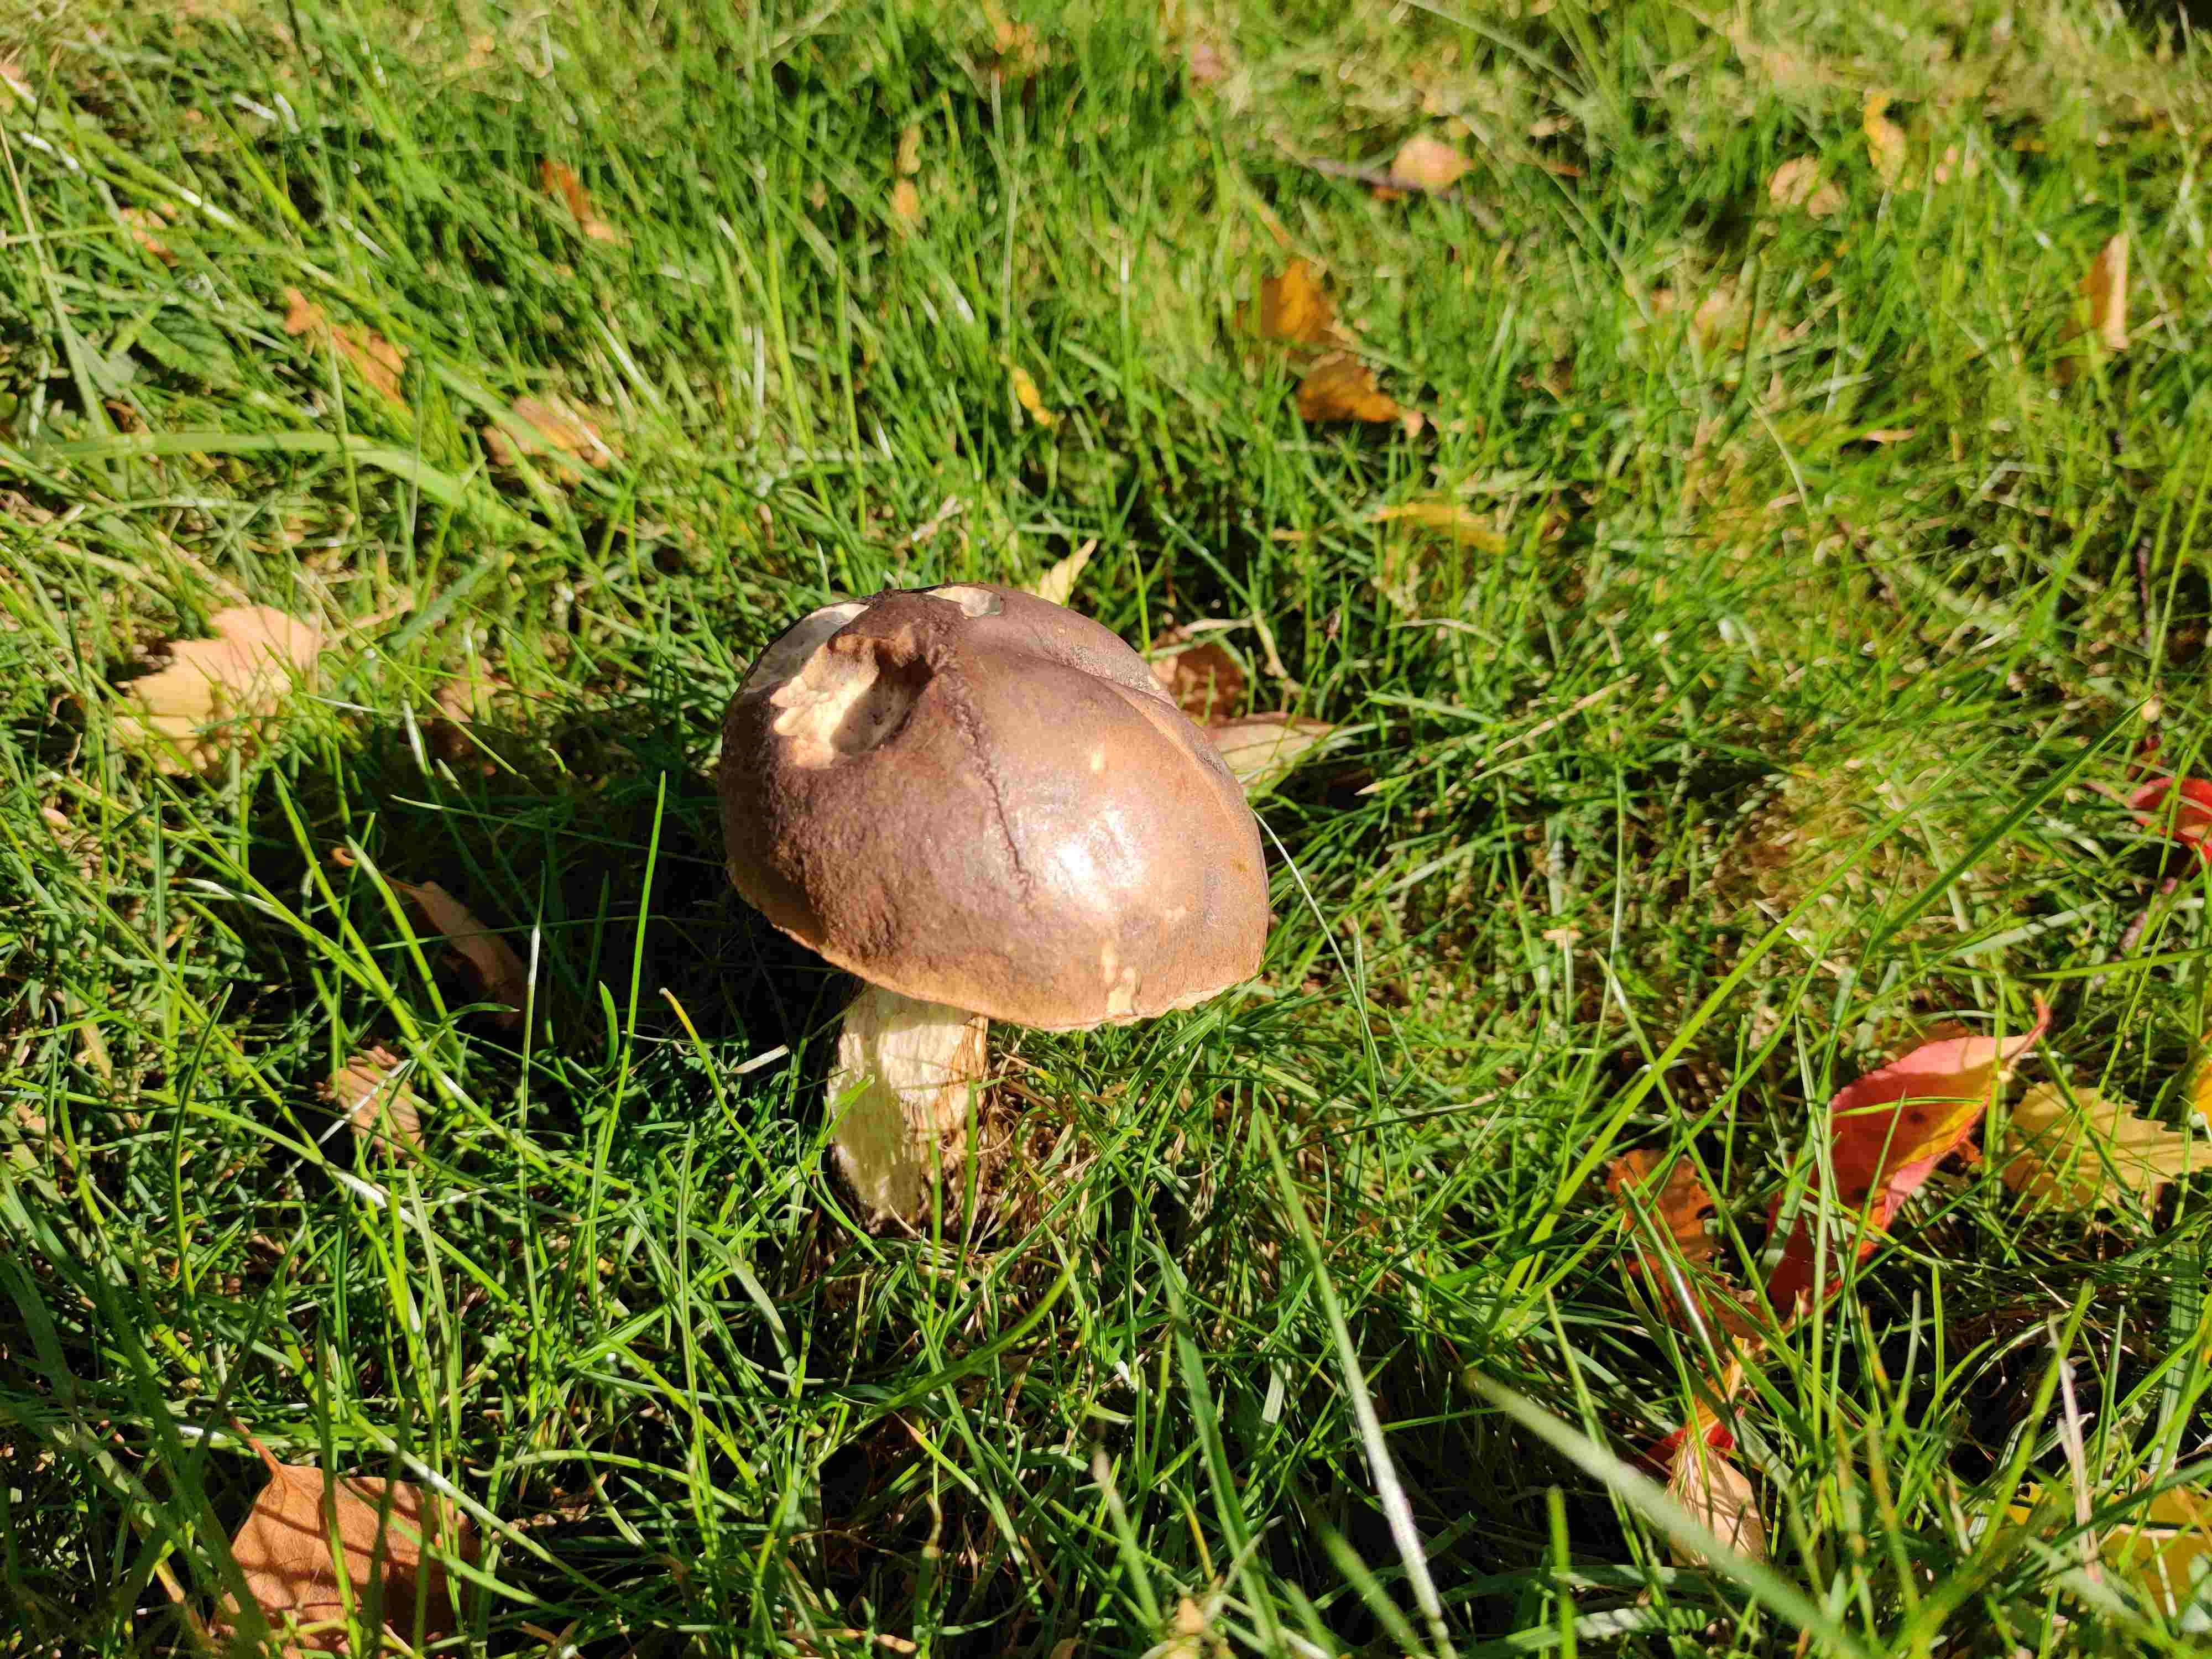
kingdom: Fungi
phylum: Basidiomycota
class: Agaricomycetes
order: Boletales
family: Boletaceae
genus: Leccinum
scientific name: Leccinum
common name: skælrørhat
